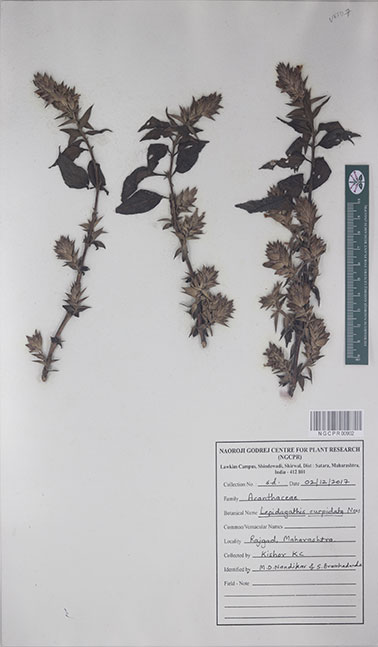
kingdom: Plantae
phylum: Tracheophyta
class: Magnoliopsida
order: Lamiales
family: Acanthaceae
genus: Lepidagathis
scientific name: Lepidagathis cuspidata
